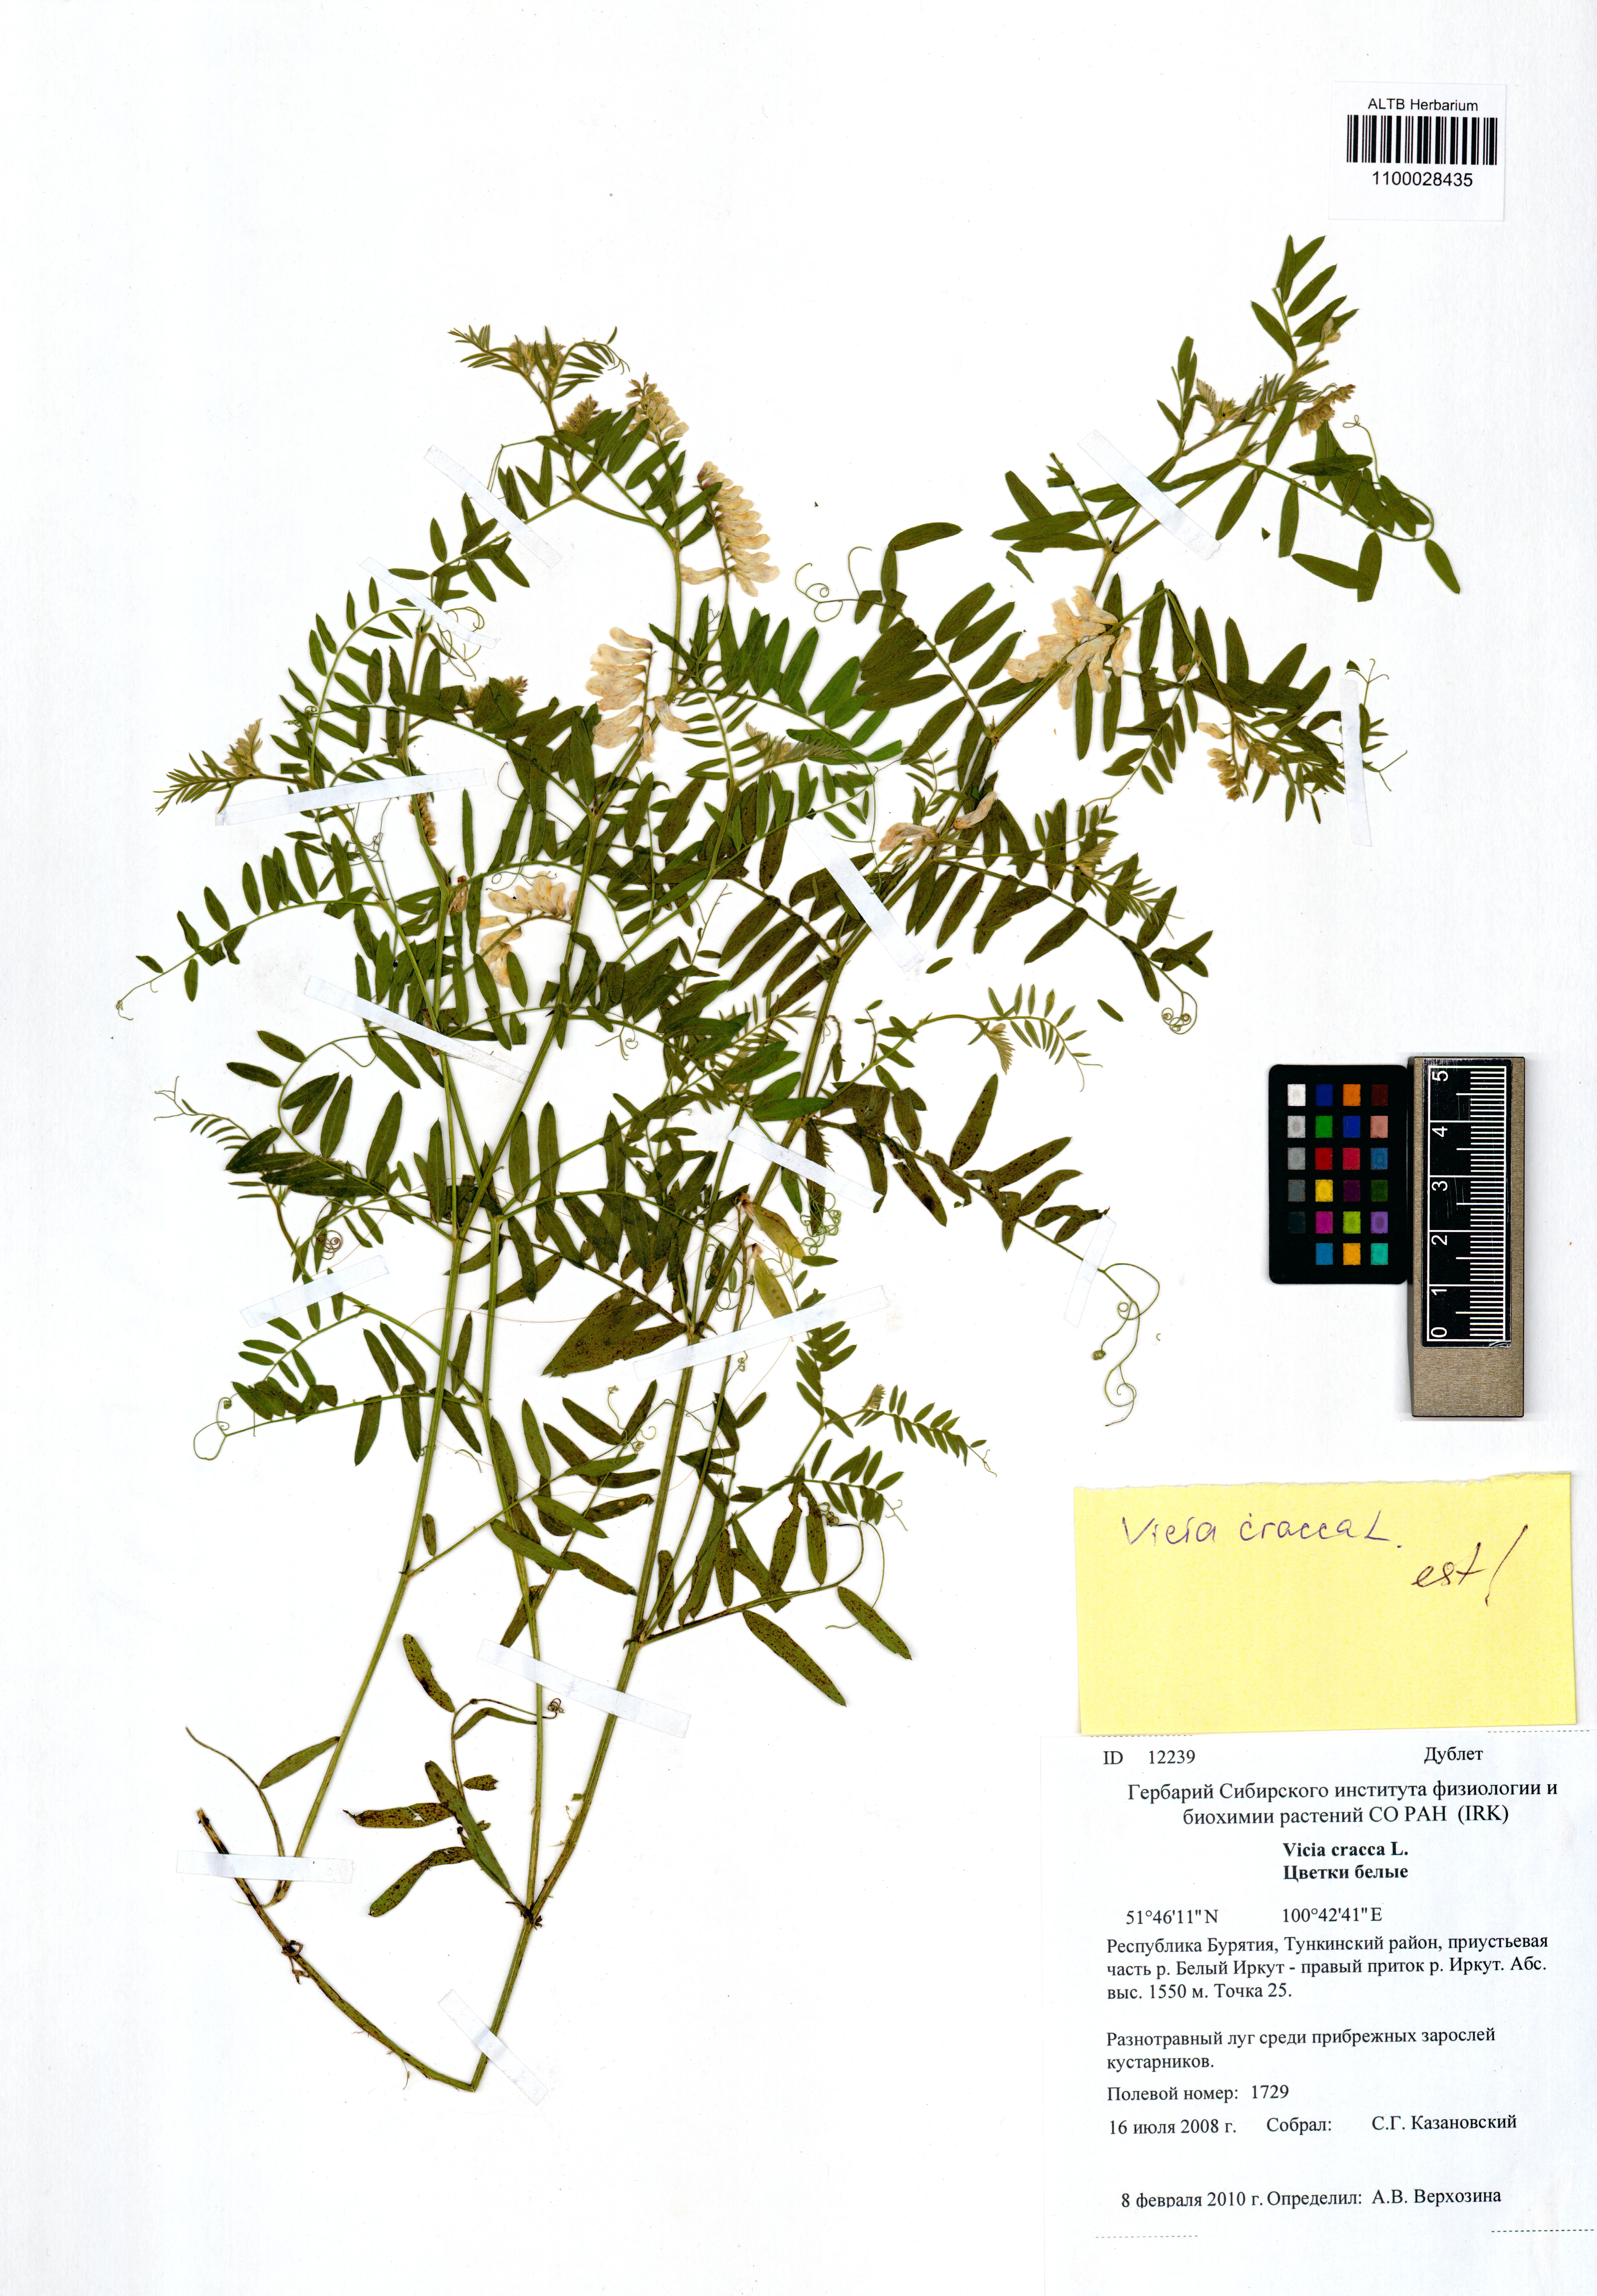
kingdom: Plantae
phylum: Tracheophyta
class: Magnoliopsida
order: Fabales
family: Fabaceae
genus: Vicia
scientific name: Vicia cracca
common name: Bird vetch
